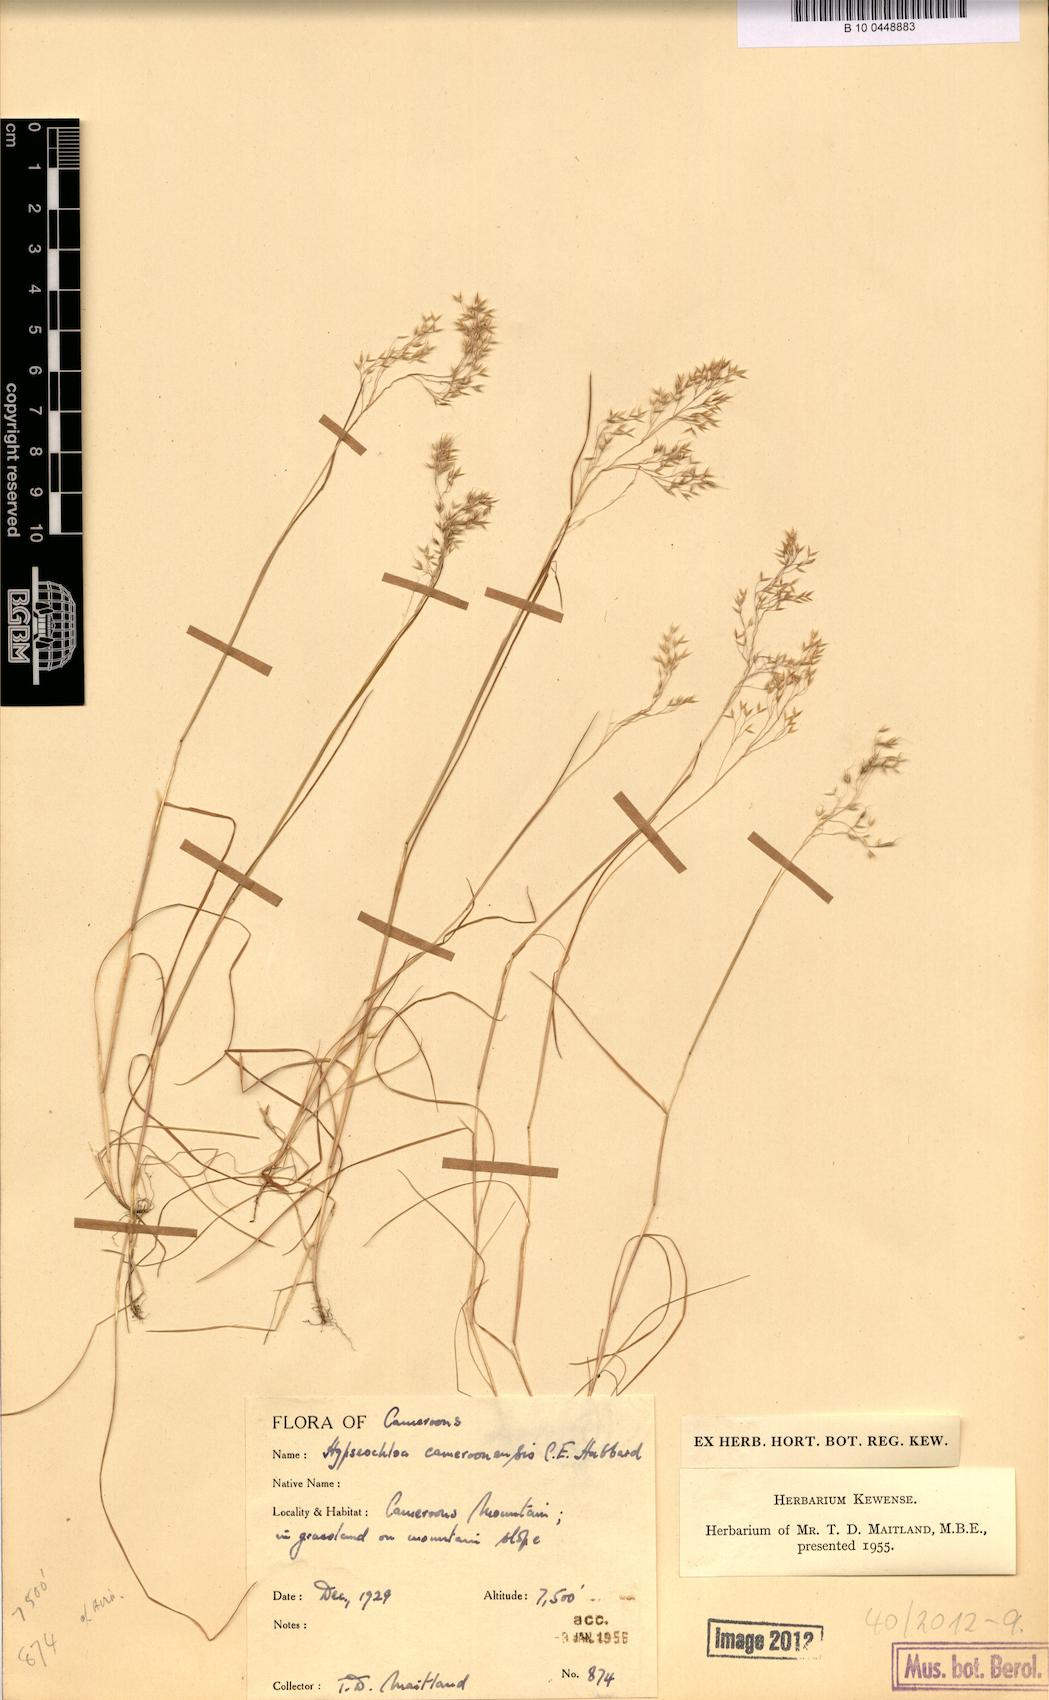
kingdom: Plantae
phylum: Tracheophyta
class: Liliopsida
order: Poales
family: Poaceae
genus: Hypseochloa
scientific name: Hypseochloa cameroonensis
